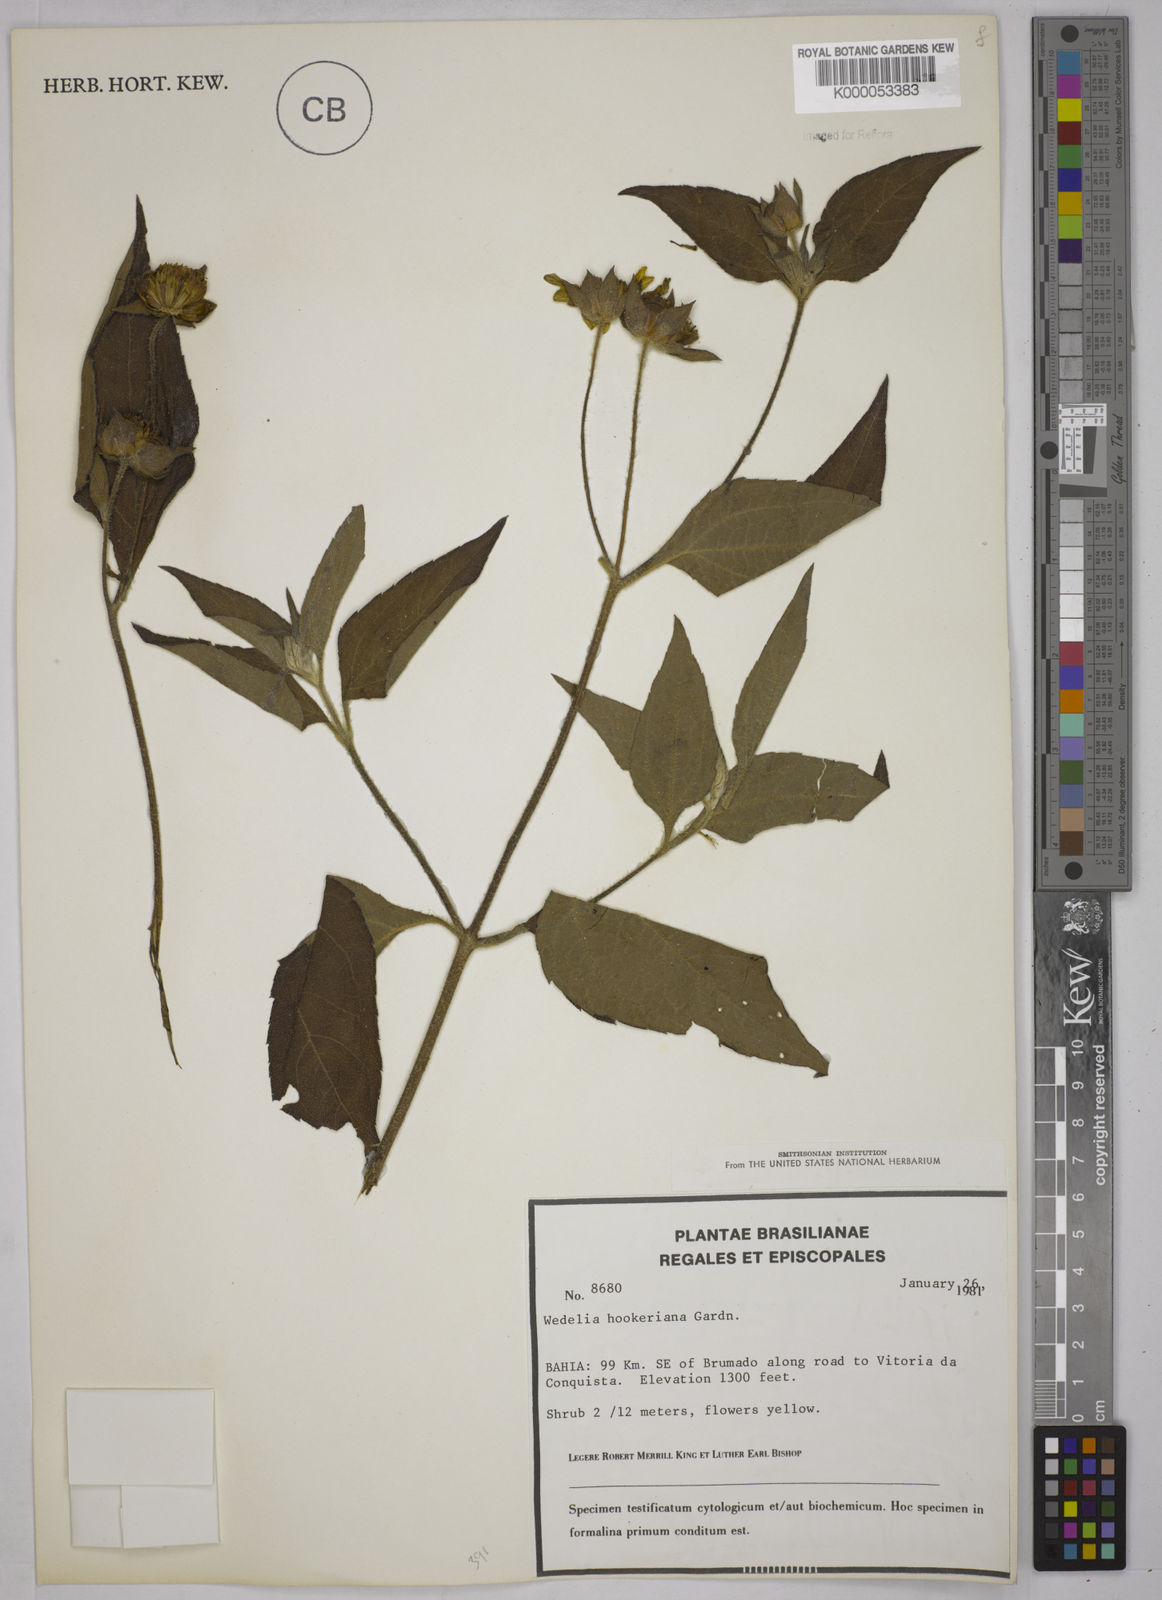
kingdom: Plantae
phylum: Tracheophyta
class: Magnoliopsida
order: Asterales
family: Asteraceae
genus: Wedelia
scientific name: Wedelia hookeriana
